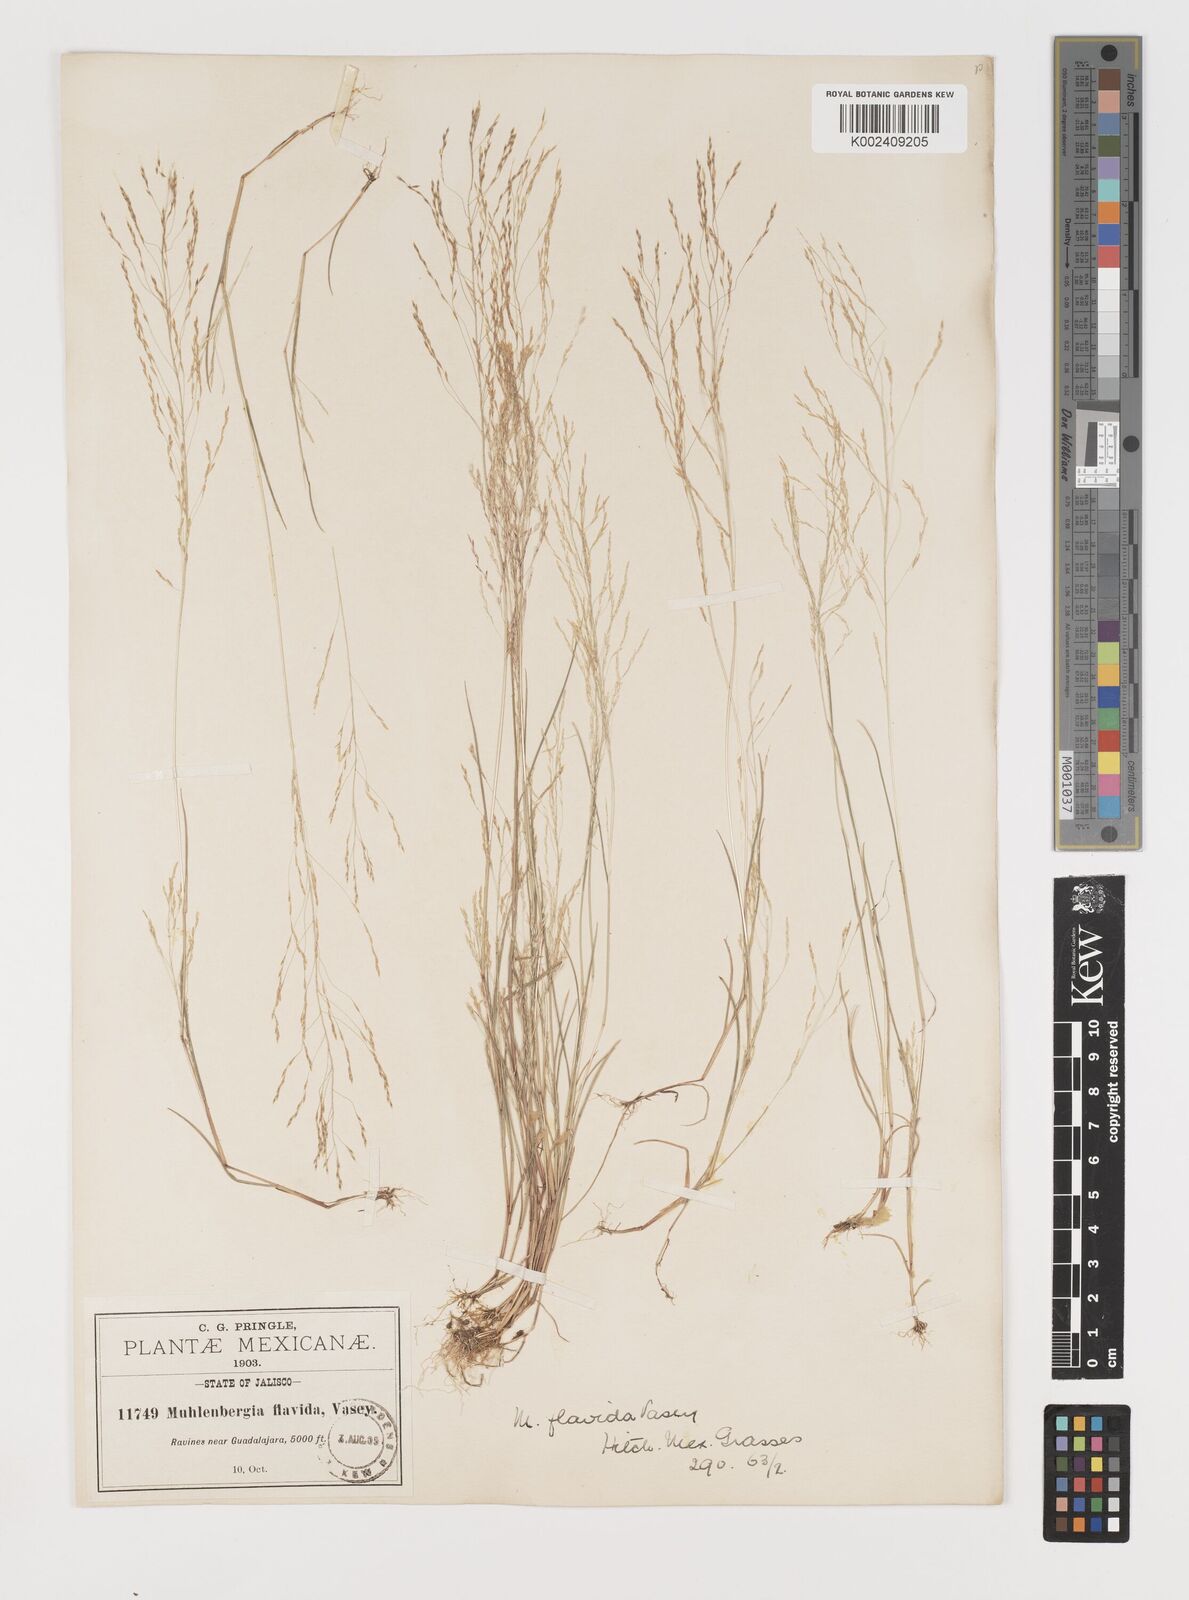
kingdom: Plantae
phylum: Tracheophyta
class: Liliopsida
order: Poales
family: Poaceae
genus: Muhlenbergia
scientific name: Muhlenbergia flavida
